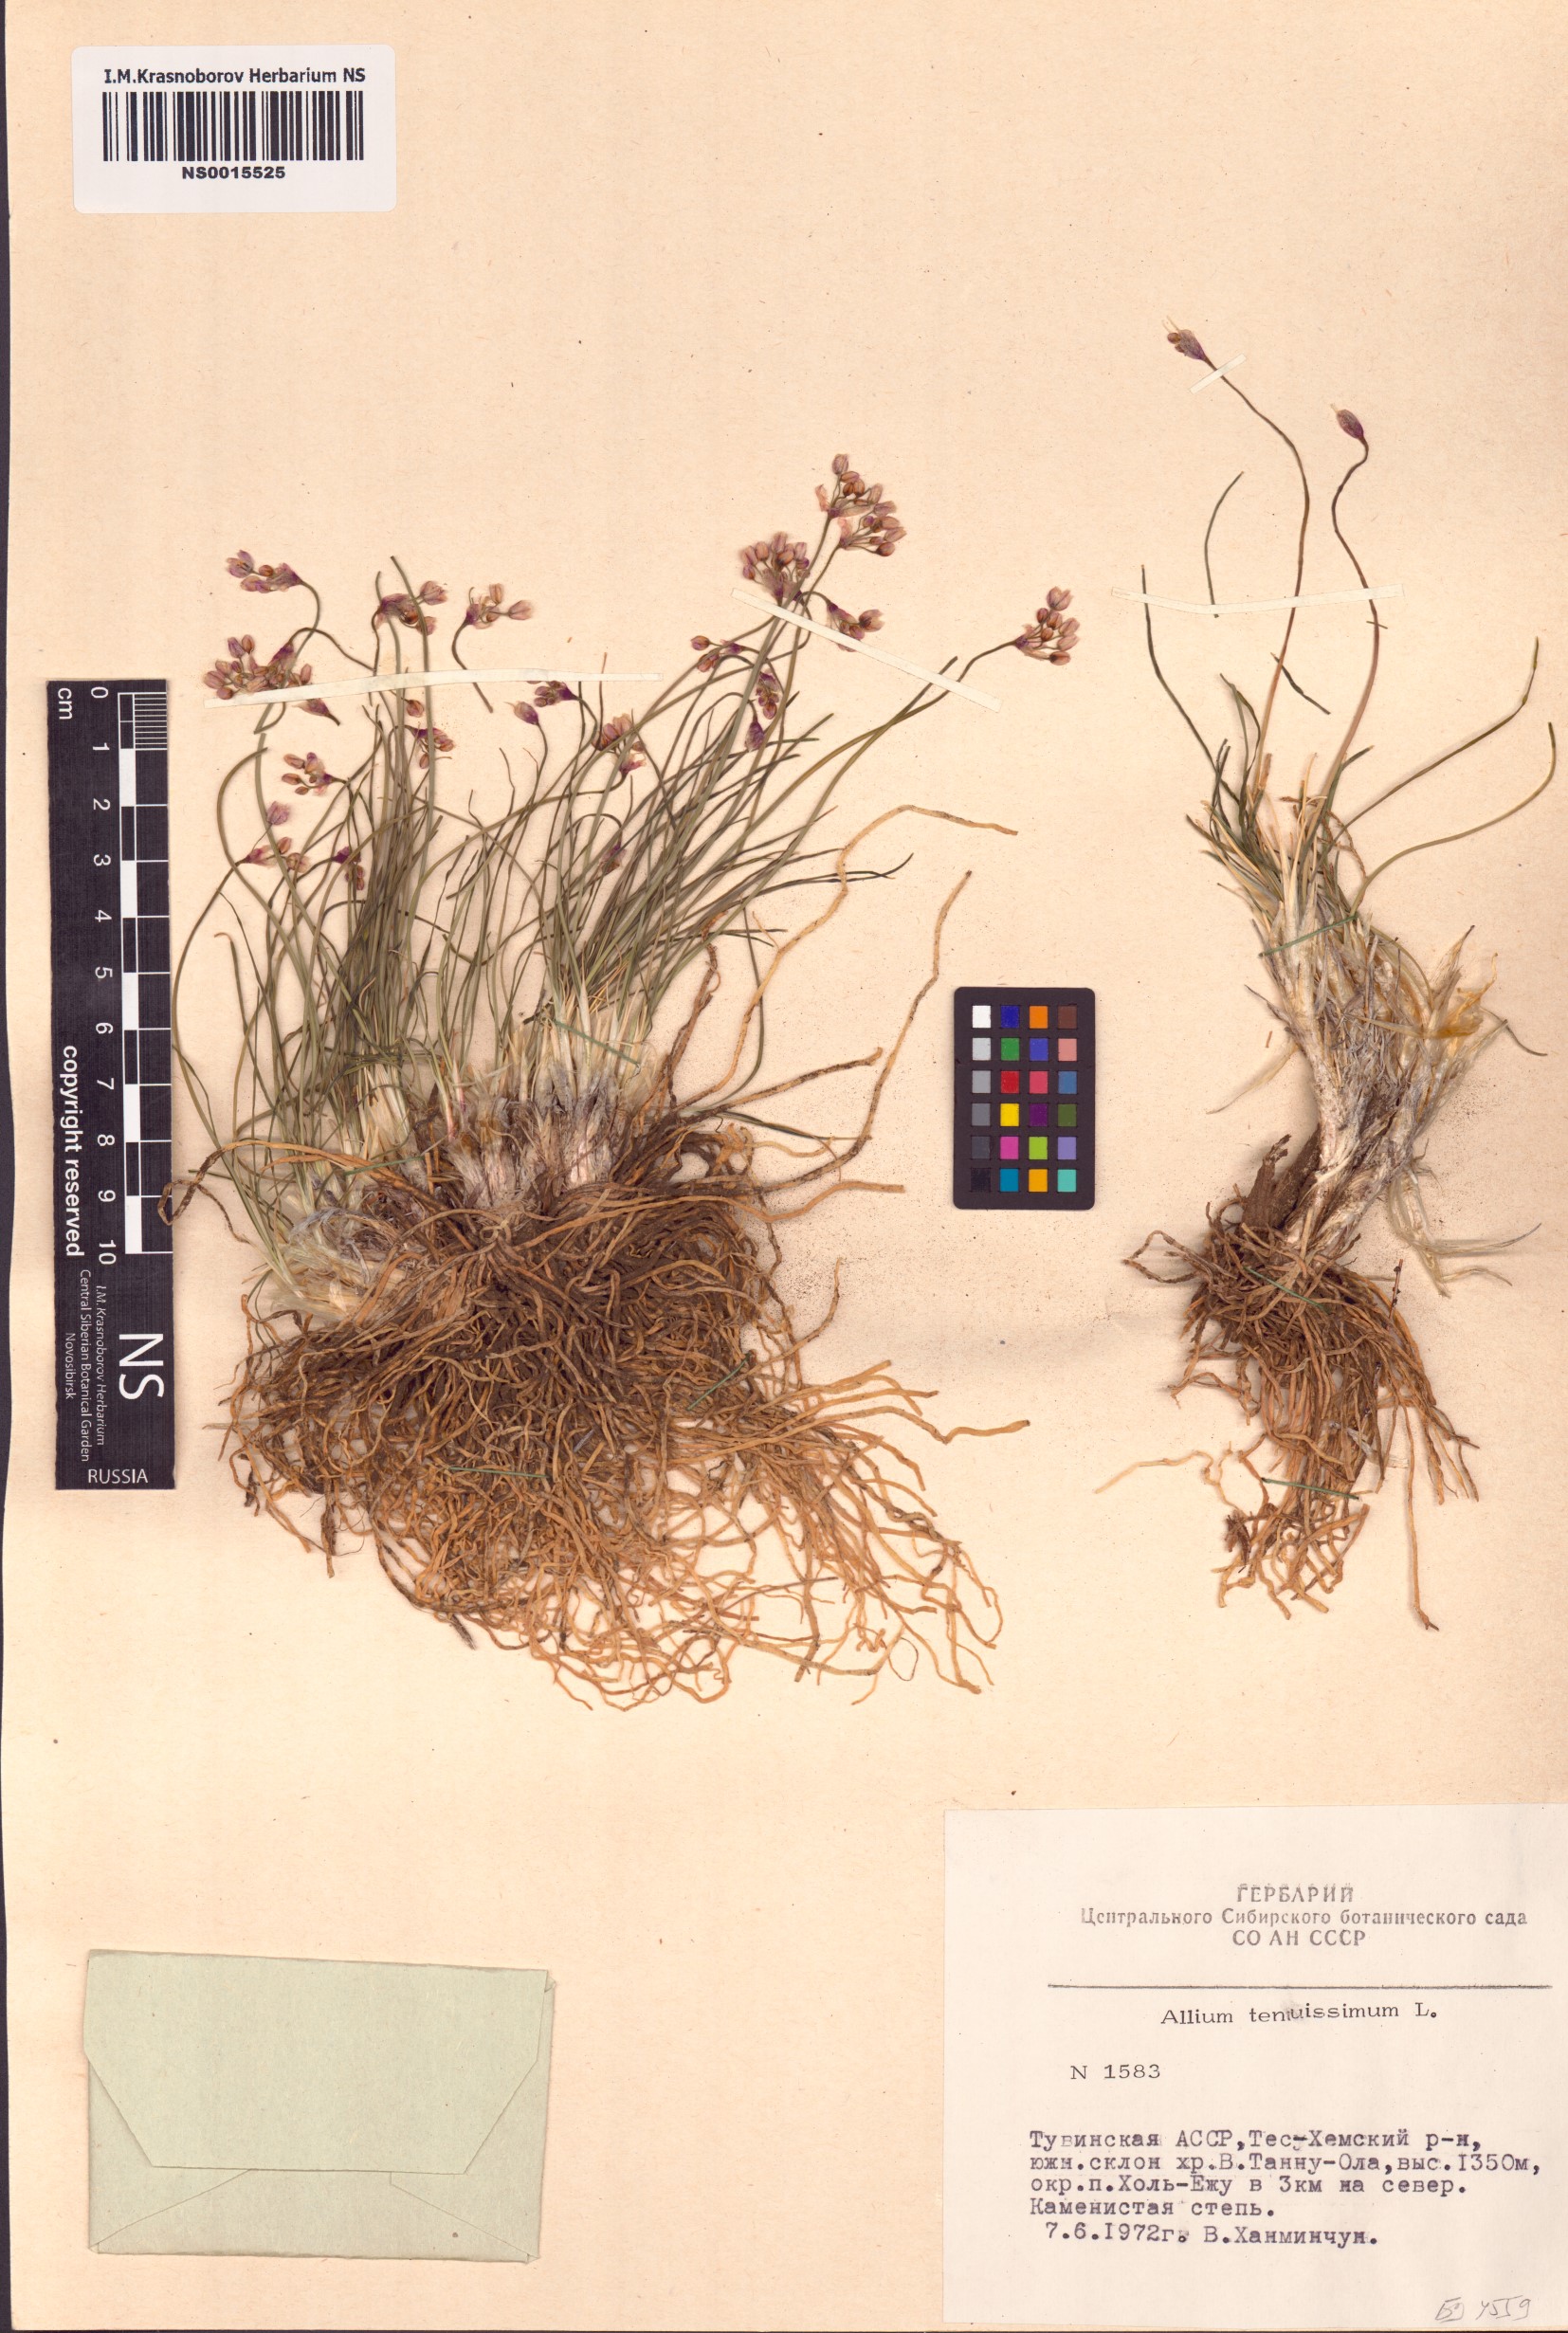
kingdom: Plantae
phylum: Tracheophyta
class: Liliopsida
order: Asparagales
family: Amaryllidaceae
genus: Allium
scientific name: Allium tenuissimum
